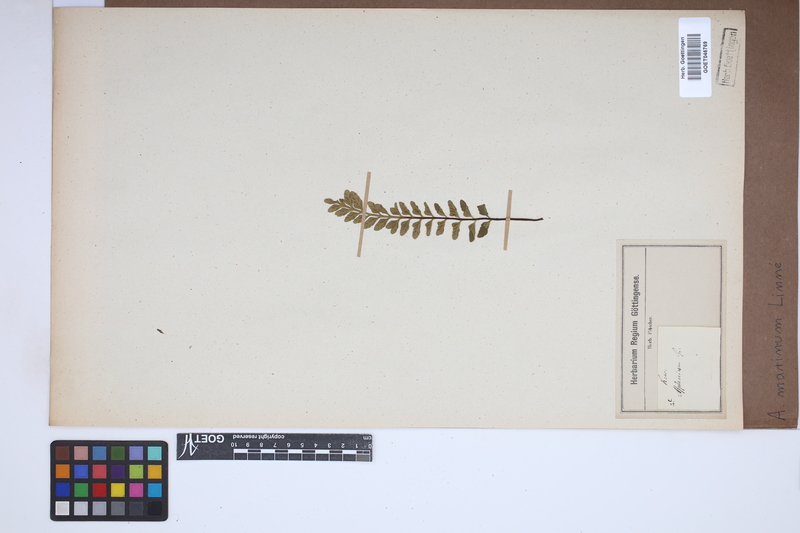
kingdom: Plantae
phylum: Tracheophyta
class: Polypodiopsida
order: Polypodiales
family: Aspleniaceae
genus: Asplenium
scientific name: Asplenium marinum
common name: Sea spleenwort
